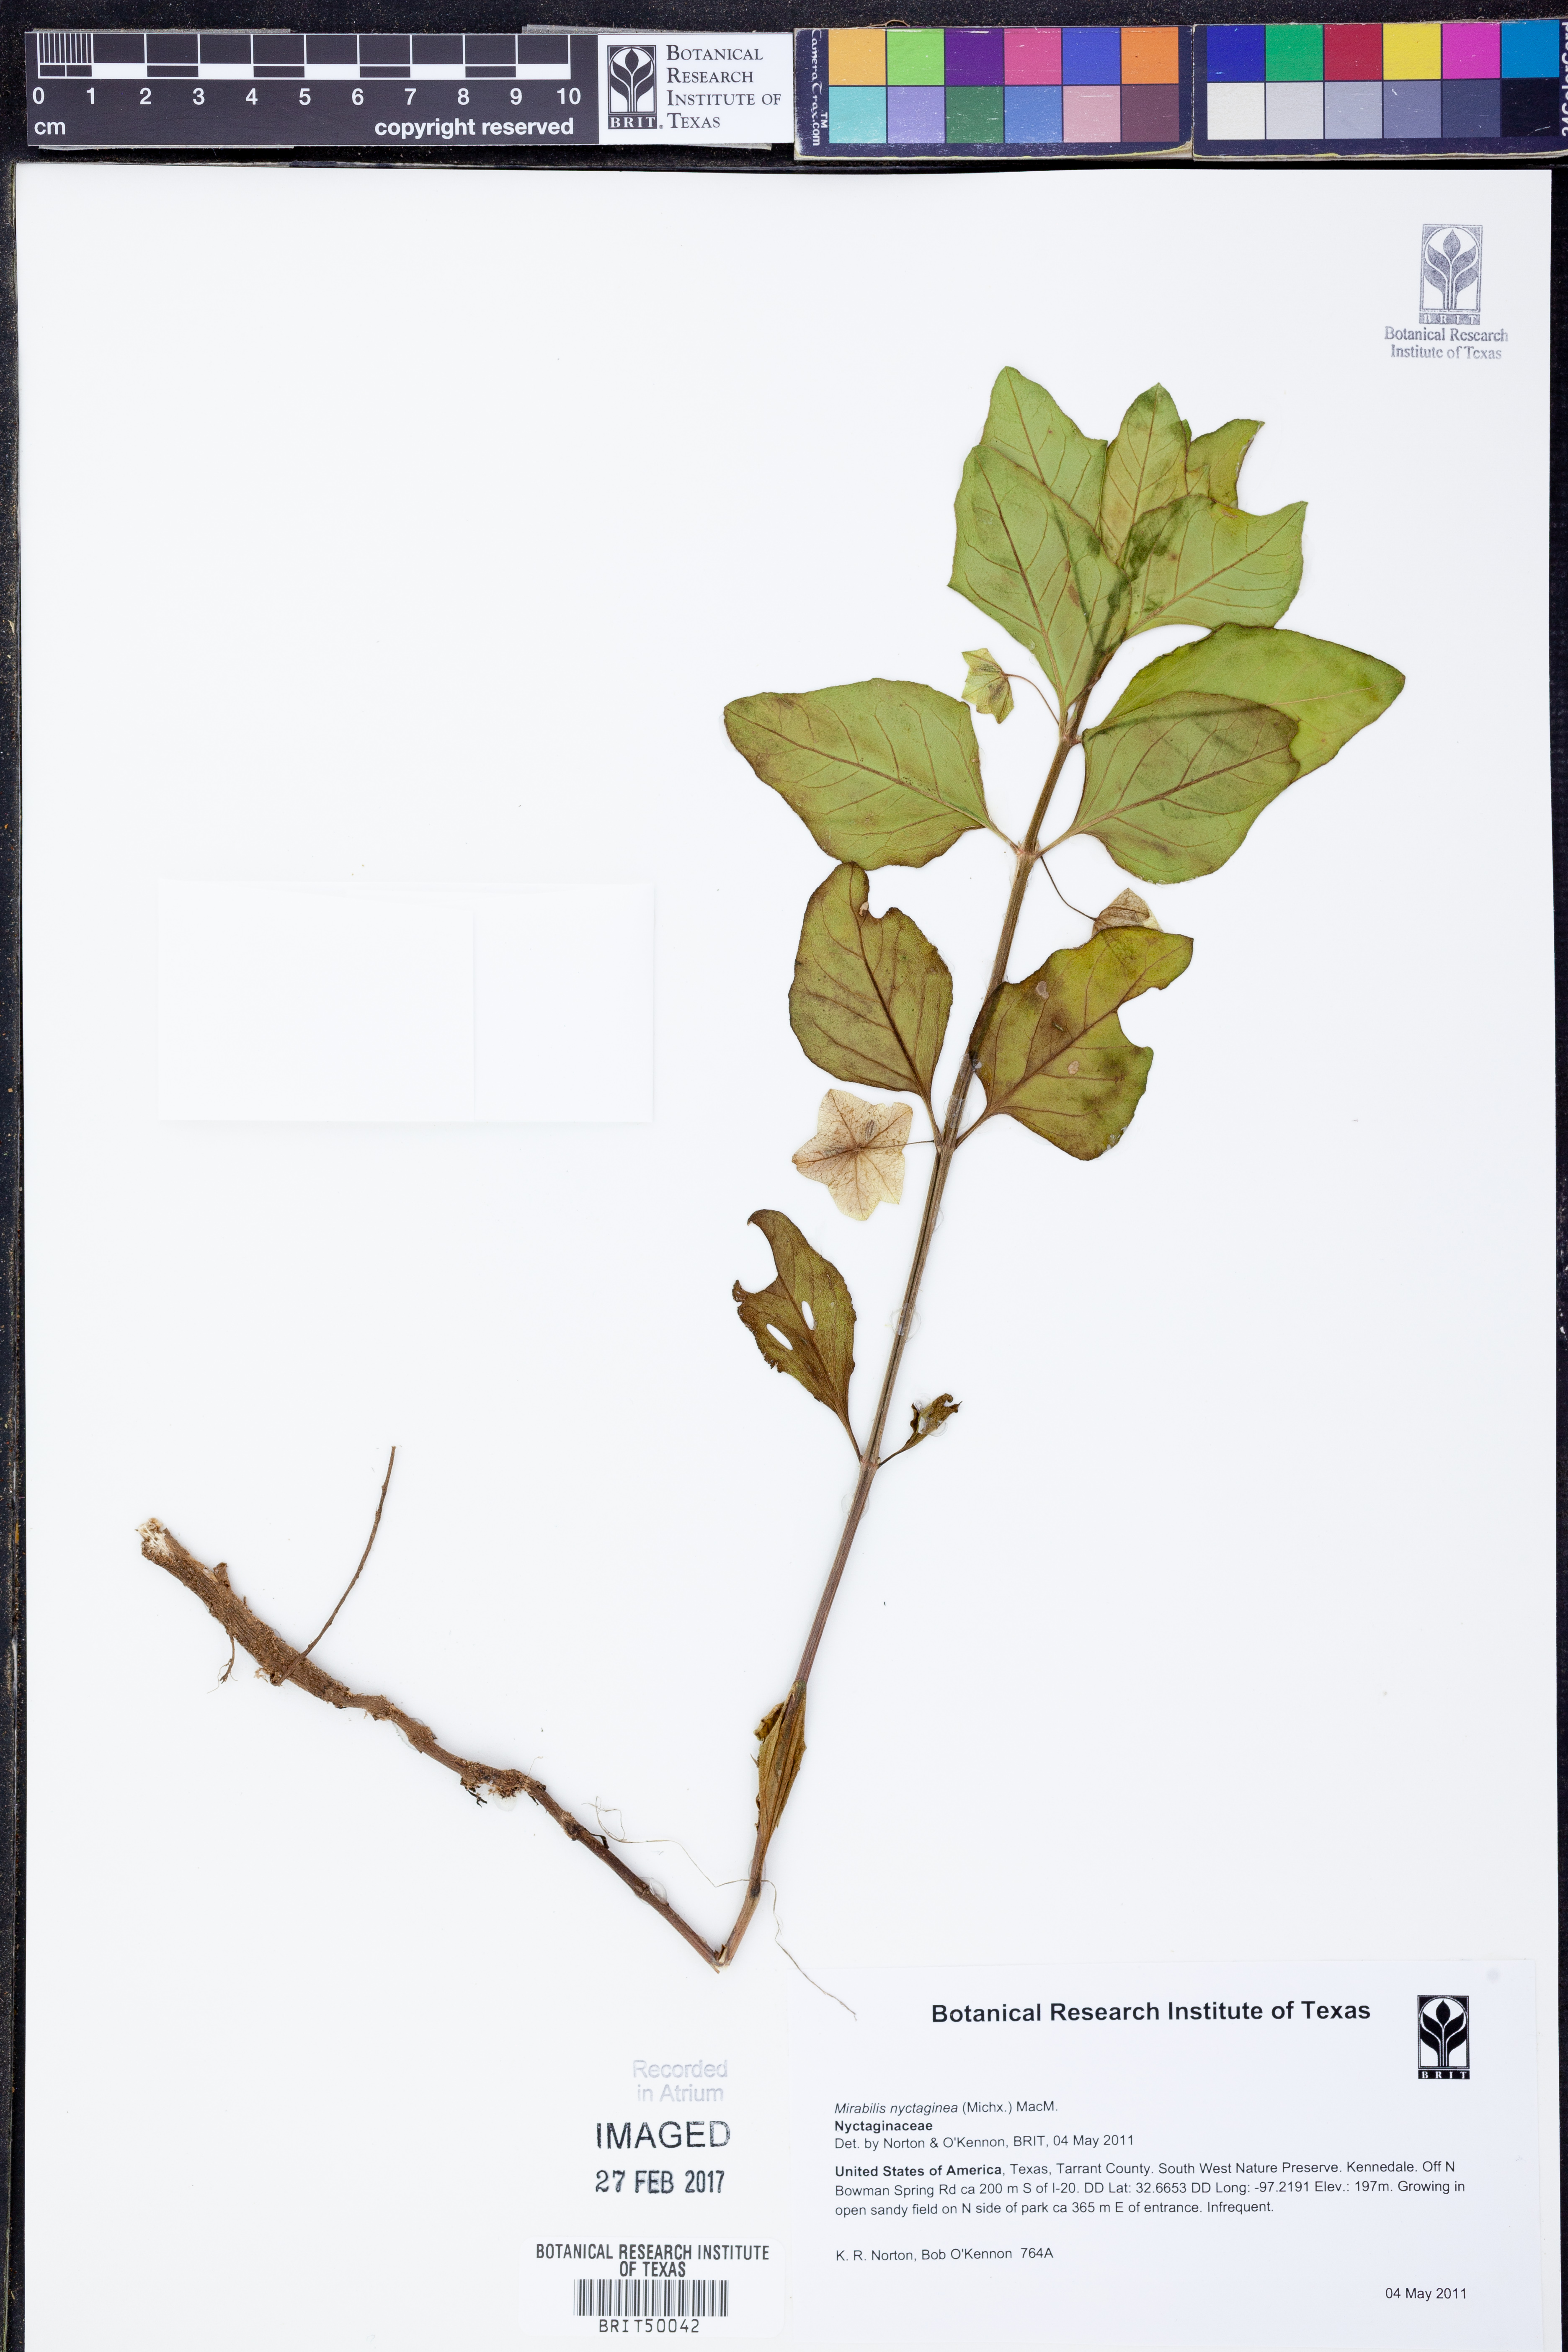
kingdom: Plantae
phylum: Tracheophyta
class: Magnoliopsida
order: Caryophyllales
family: Nyctaginaceae
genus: Mirabilis
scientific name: Mirabilis nyctaginea
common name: Umbrella wort
